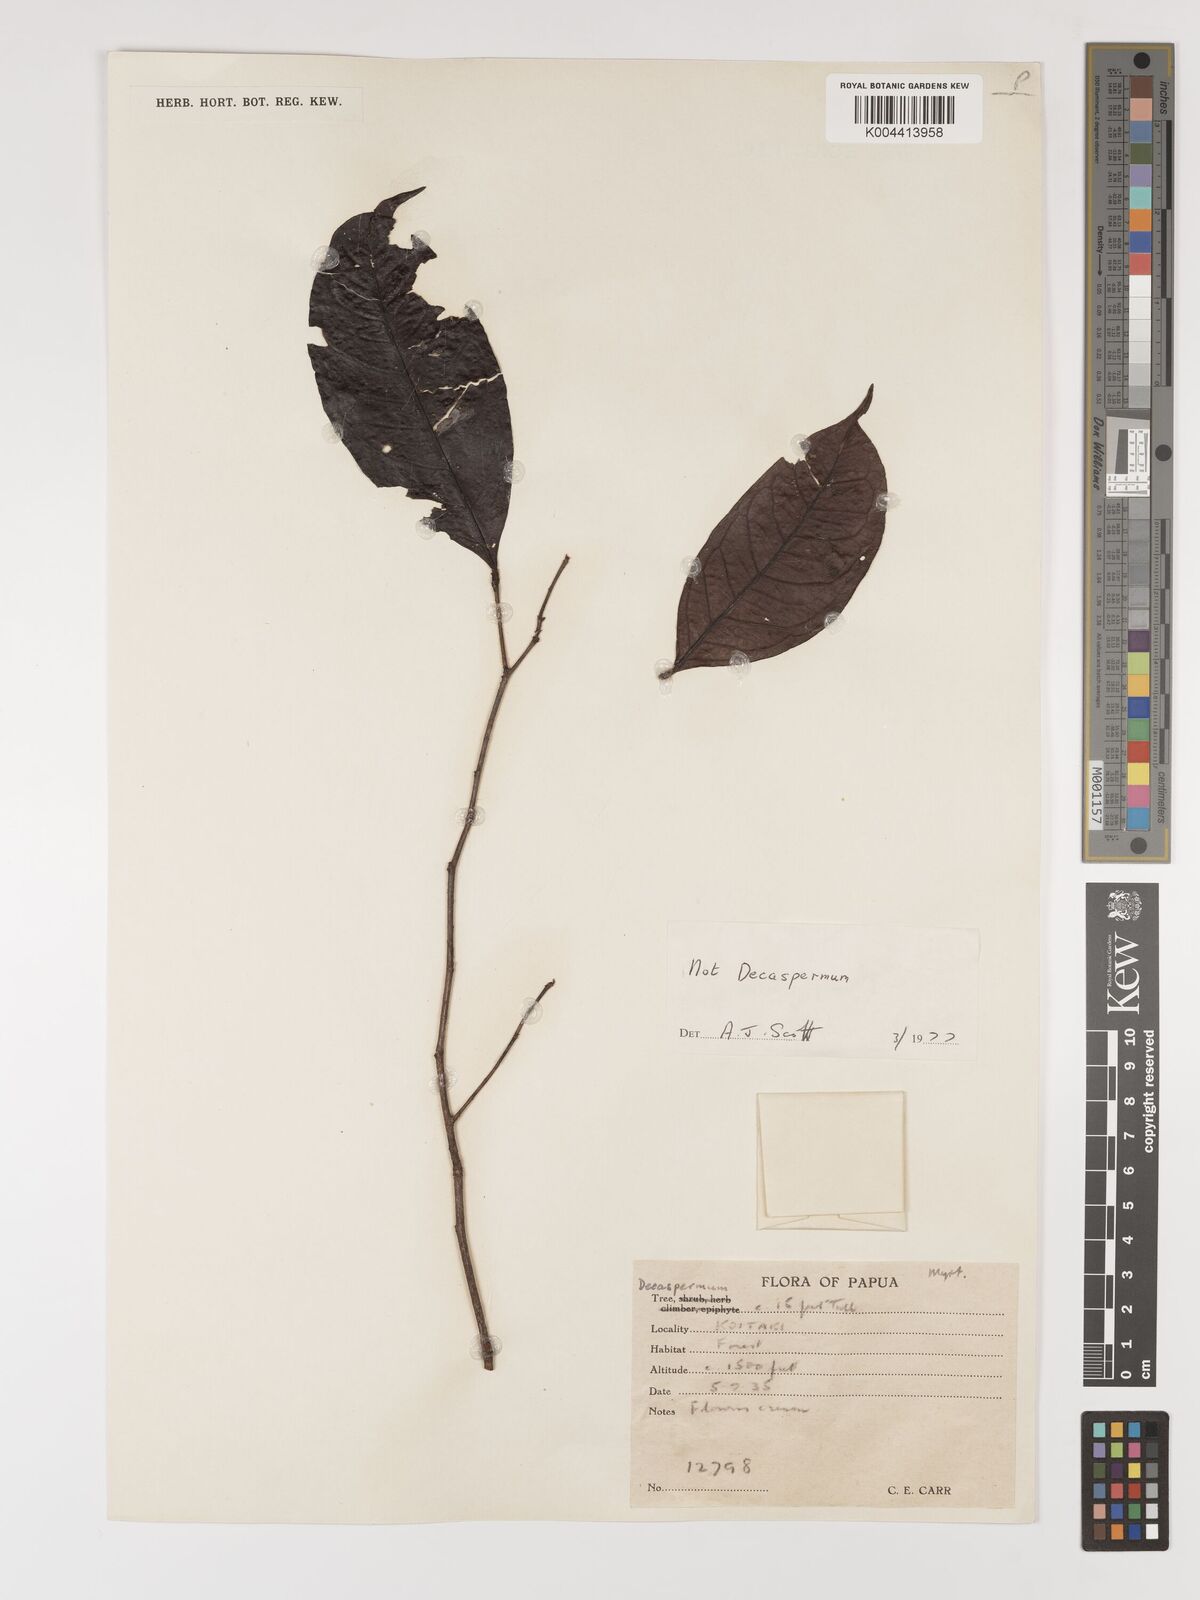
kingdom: Plantae
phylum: Tracheophyta
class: Magnoliopsida
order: Myrtales
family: Myrtaceae
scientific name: Myrtaceae
